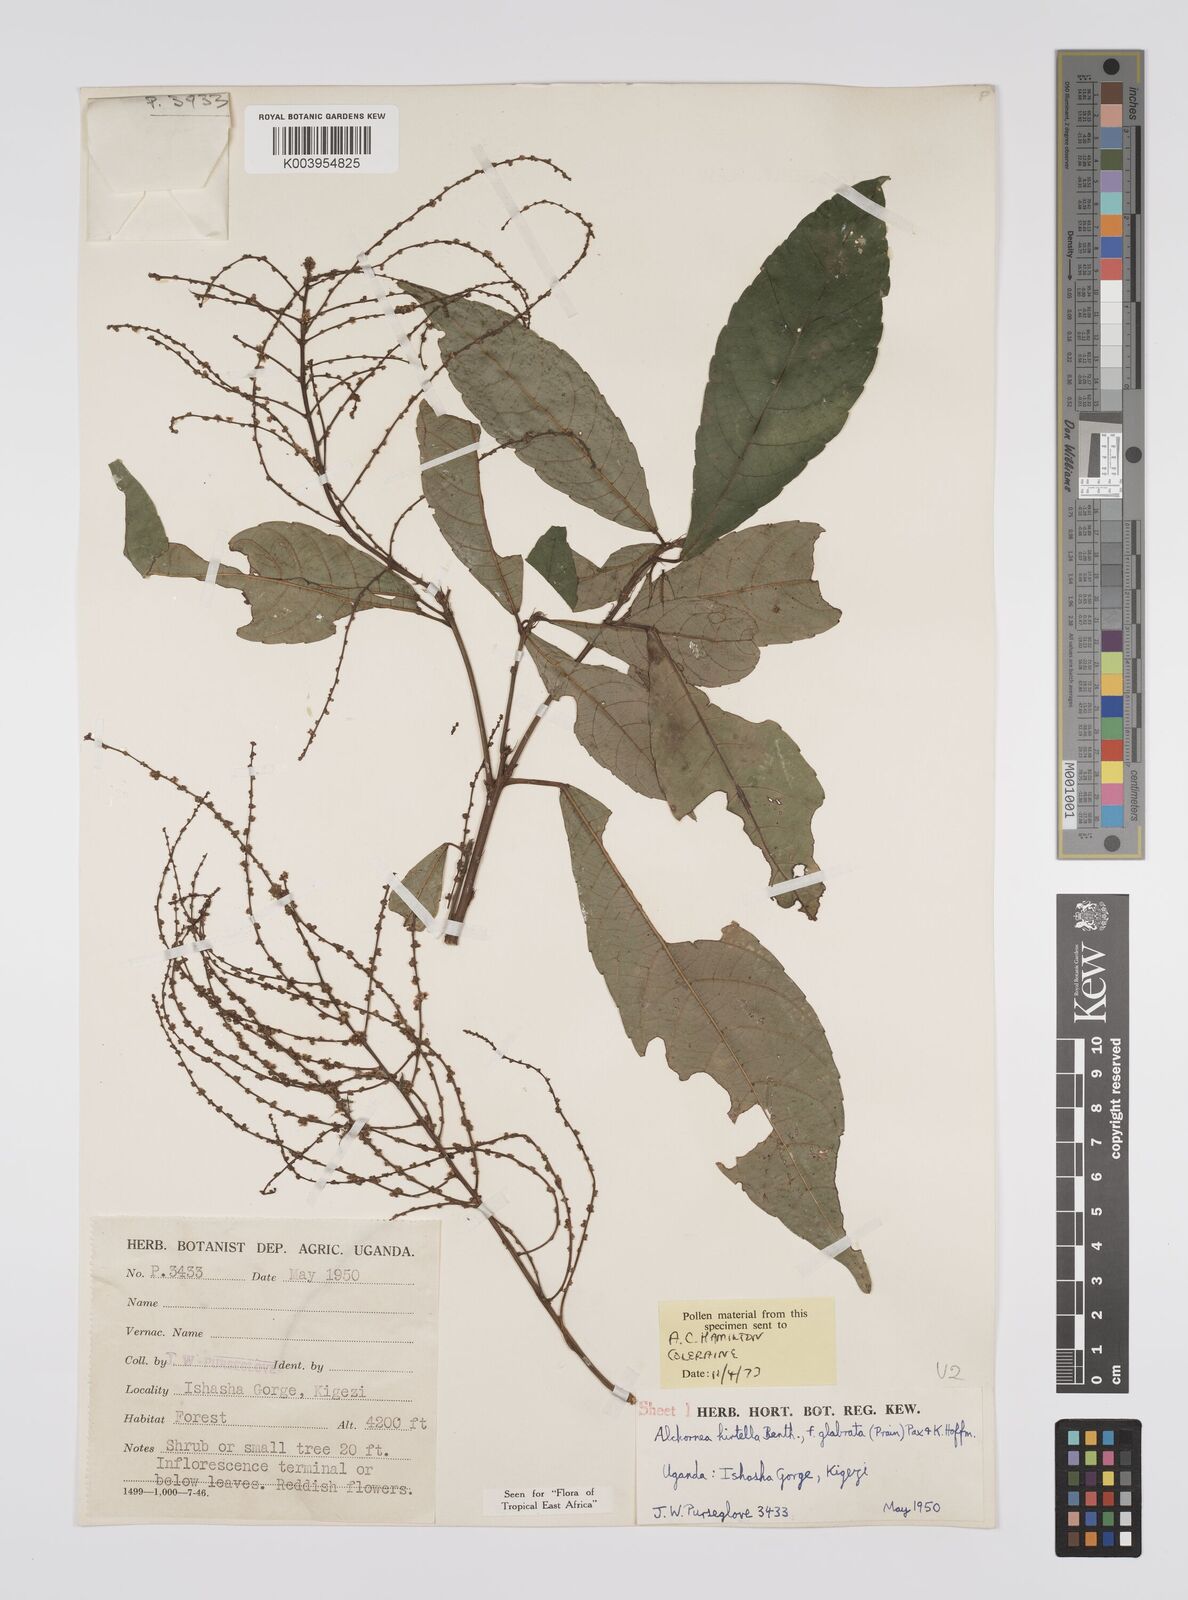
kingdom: Plantae
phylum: Tracheophyta
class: Magnoliopsida
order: Malpighiales
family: Euphorbiaceae
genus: Alchornea
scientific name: Alchornea hirtella
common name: Forest bead-string
